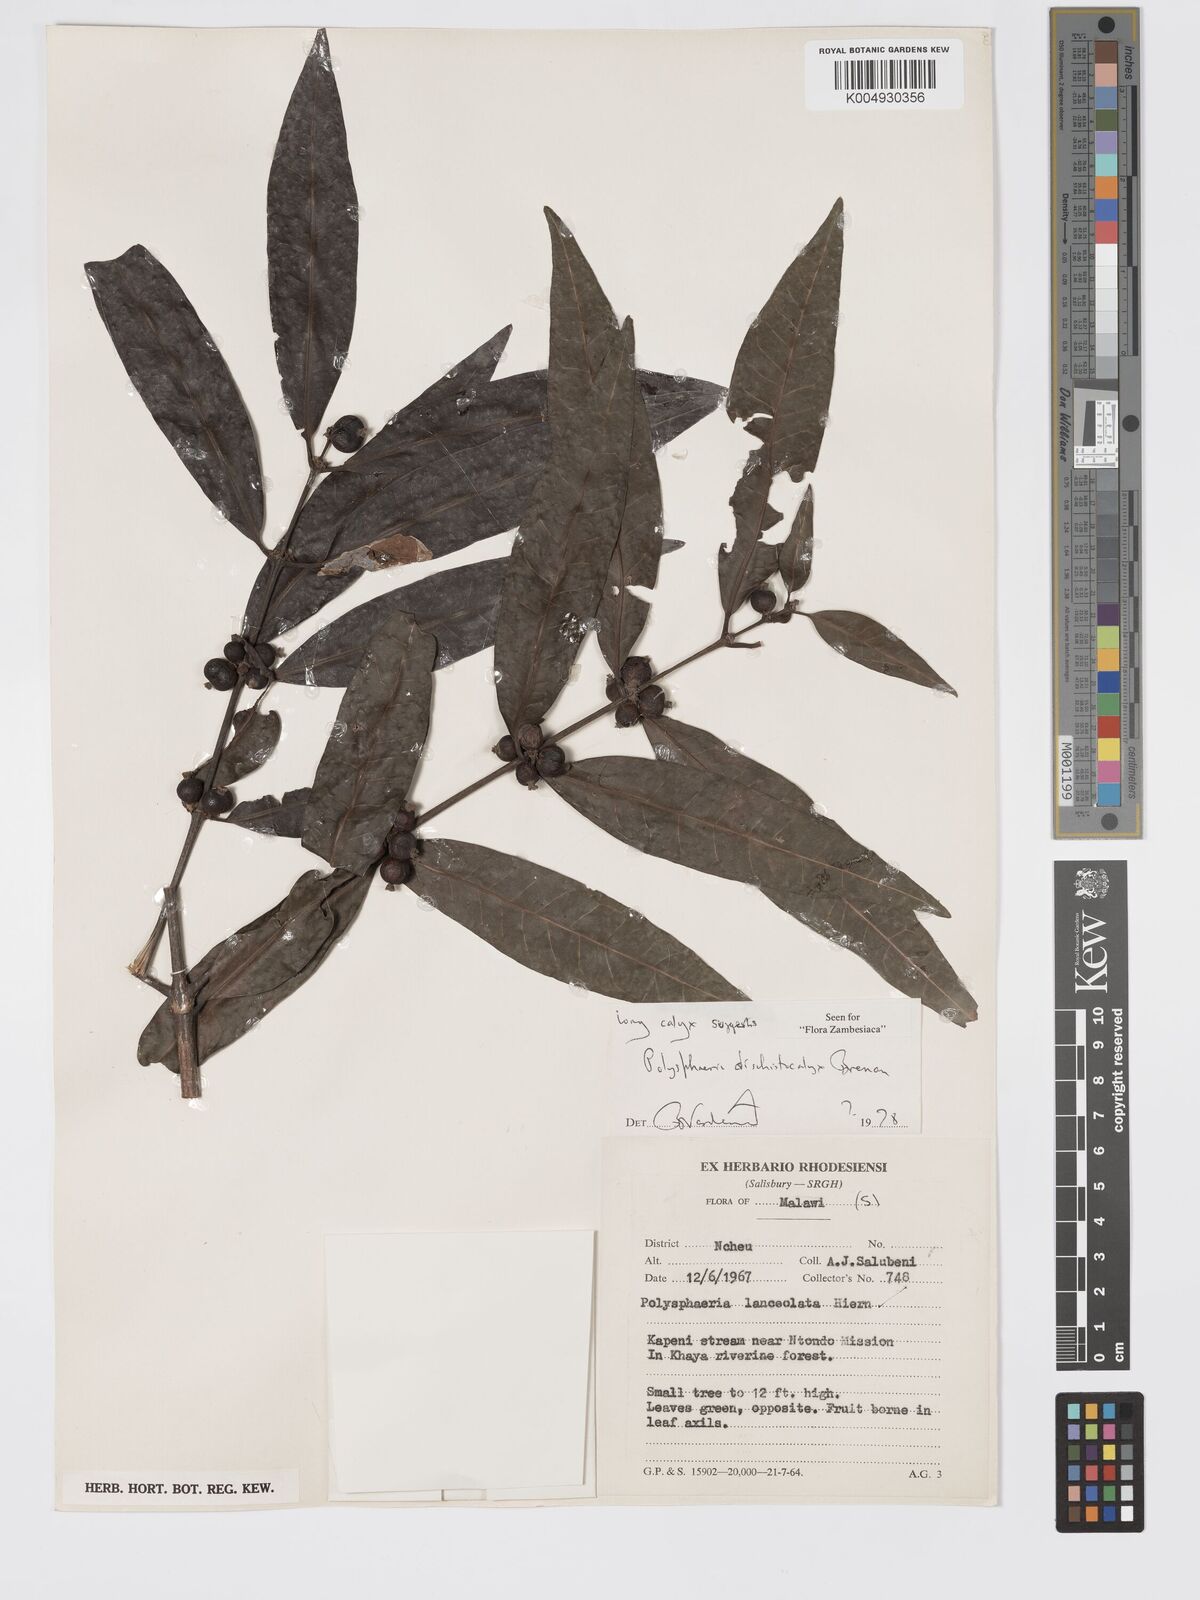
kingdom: Plantae
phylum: Tracheophyta
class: Magnoliopsida
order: Gentianales
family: Rubiaceae
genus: Polysphaeria
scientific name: Polysphaeria dischistocalyx
